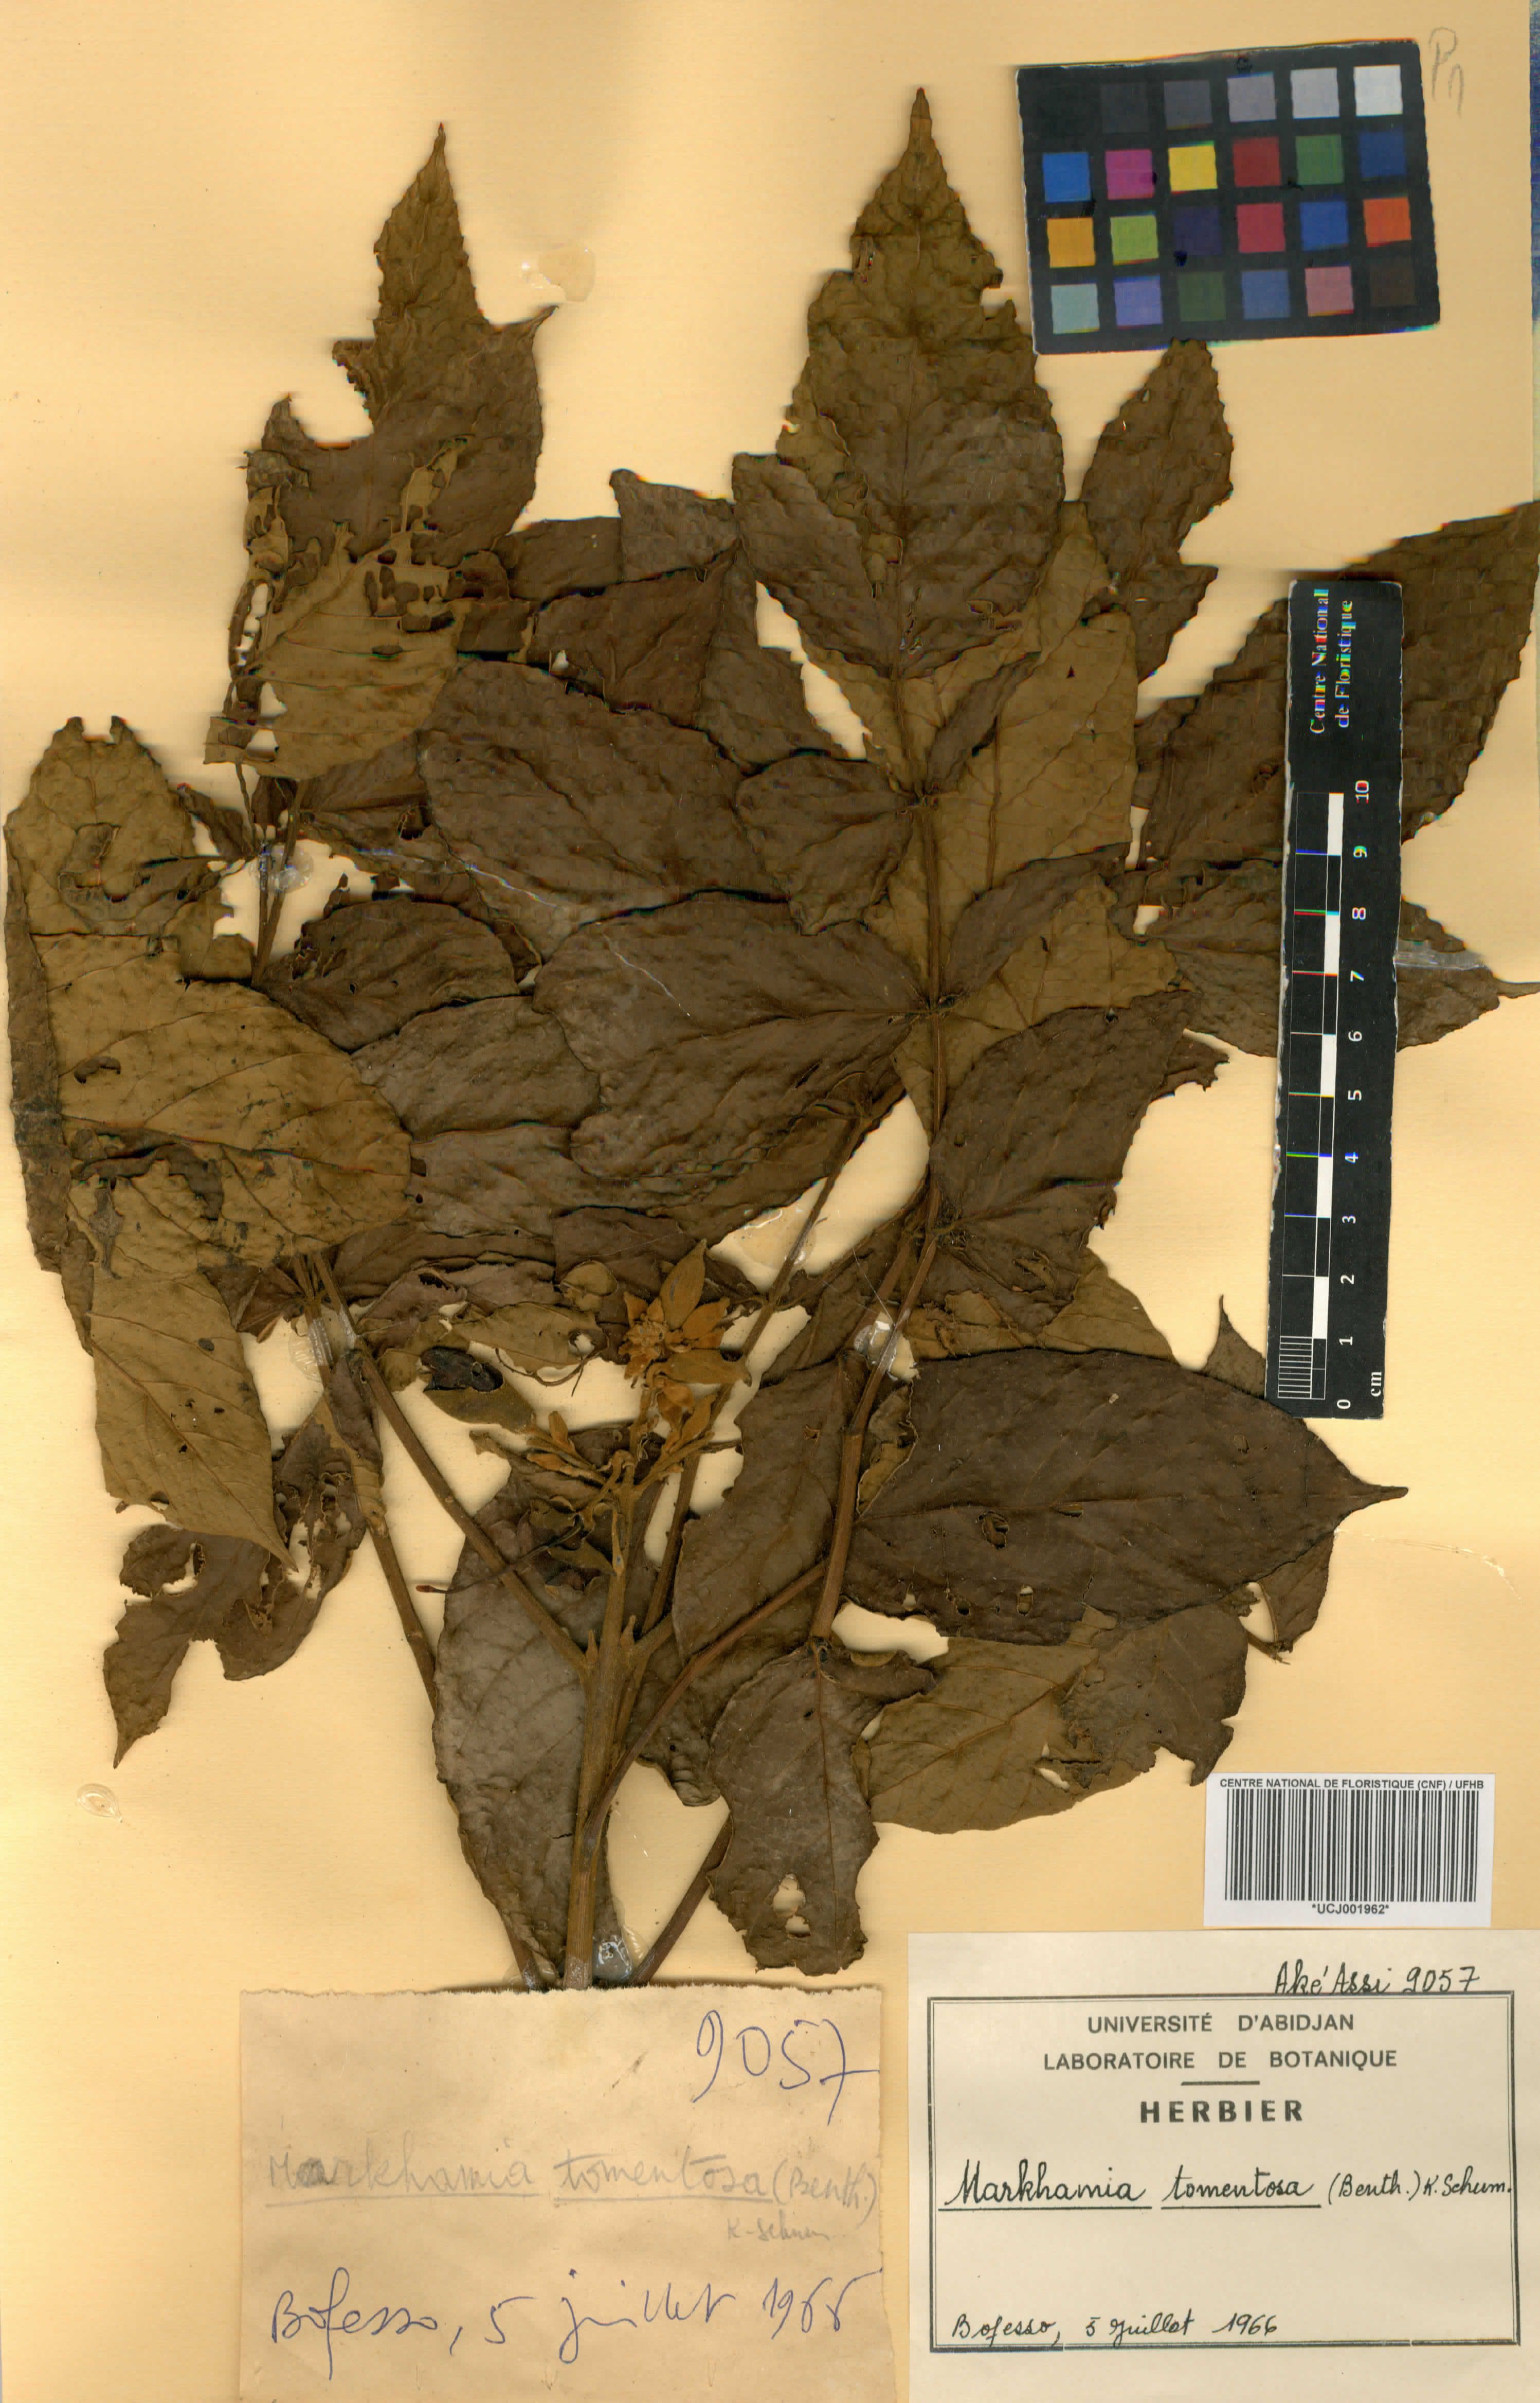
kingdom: Plantae
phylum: Tracheophyta
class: Magnoliopsida
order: Lamiales
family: Bignoniaceae
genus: Markhamia
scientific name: Markhamia tomentosa
